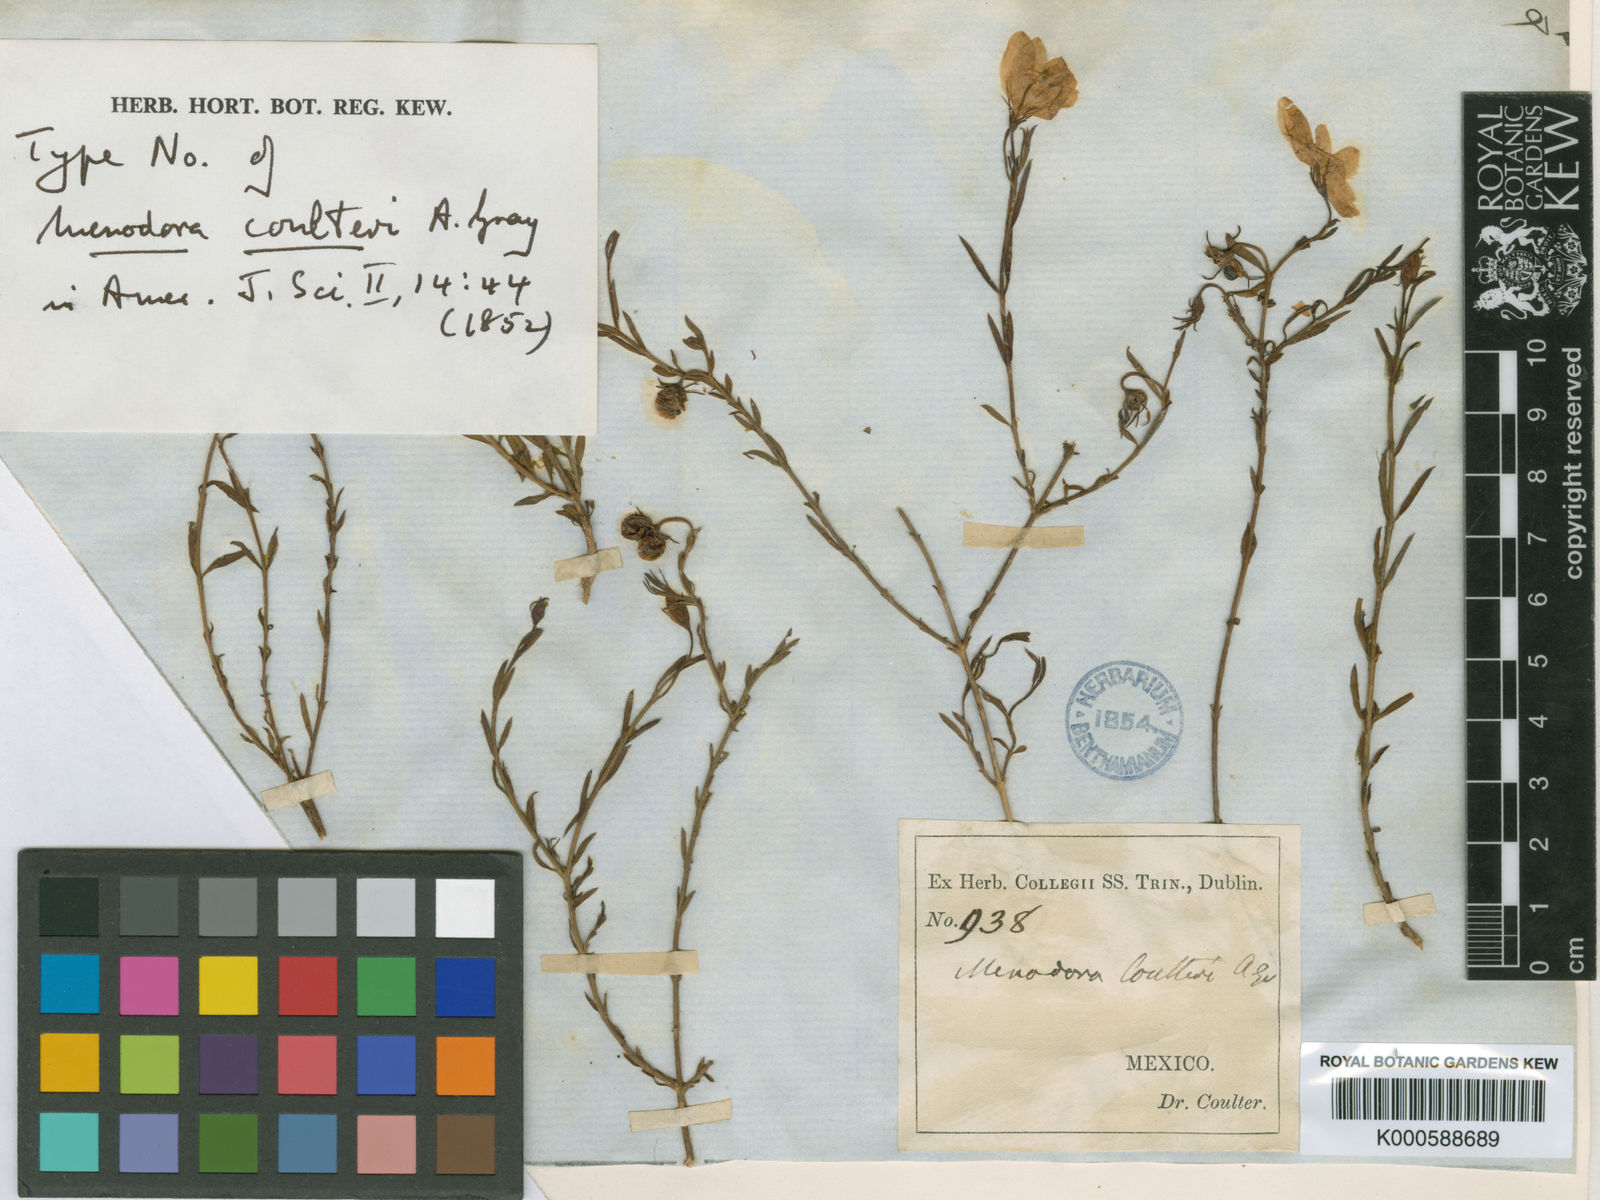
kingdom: Plantae
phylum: Tracheophyta
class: Magnoliopsida
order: Lamiales
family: Oleaceae
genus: Menodora
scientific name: Menodora coulteri
